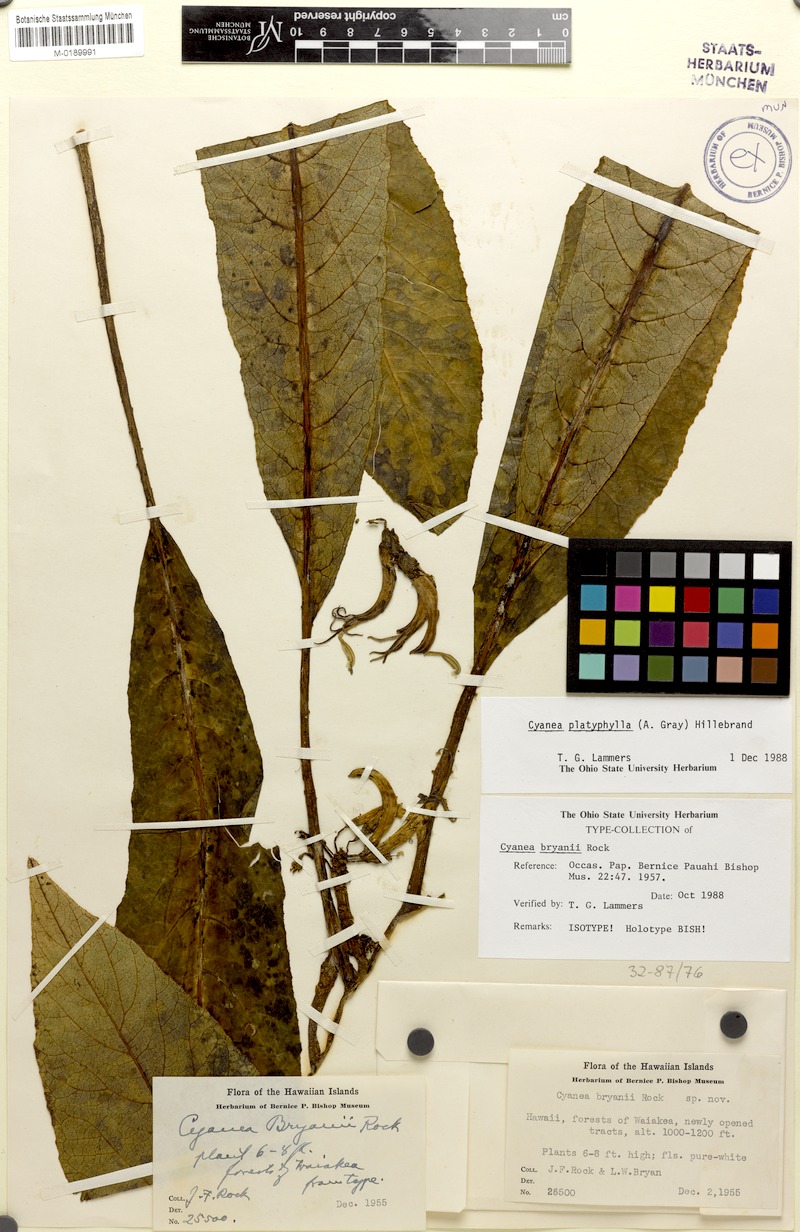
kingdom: Plantae
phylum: Tracheophyta
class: Magnoliopsida
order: Asterales
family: Campanulaceae
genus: Cyanea
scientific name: Cyanea platyphylla
